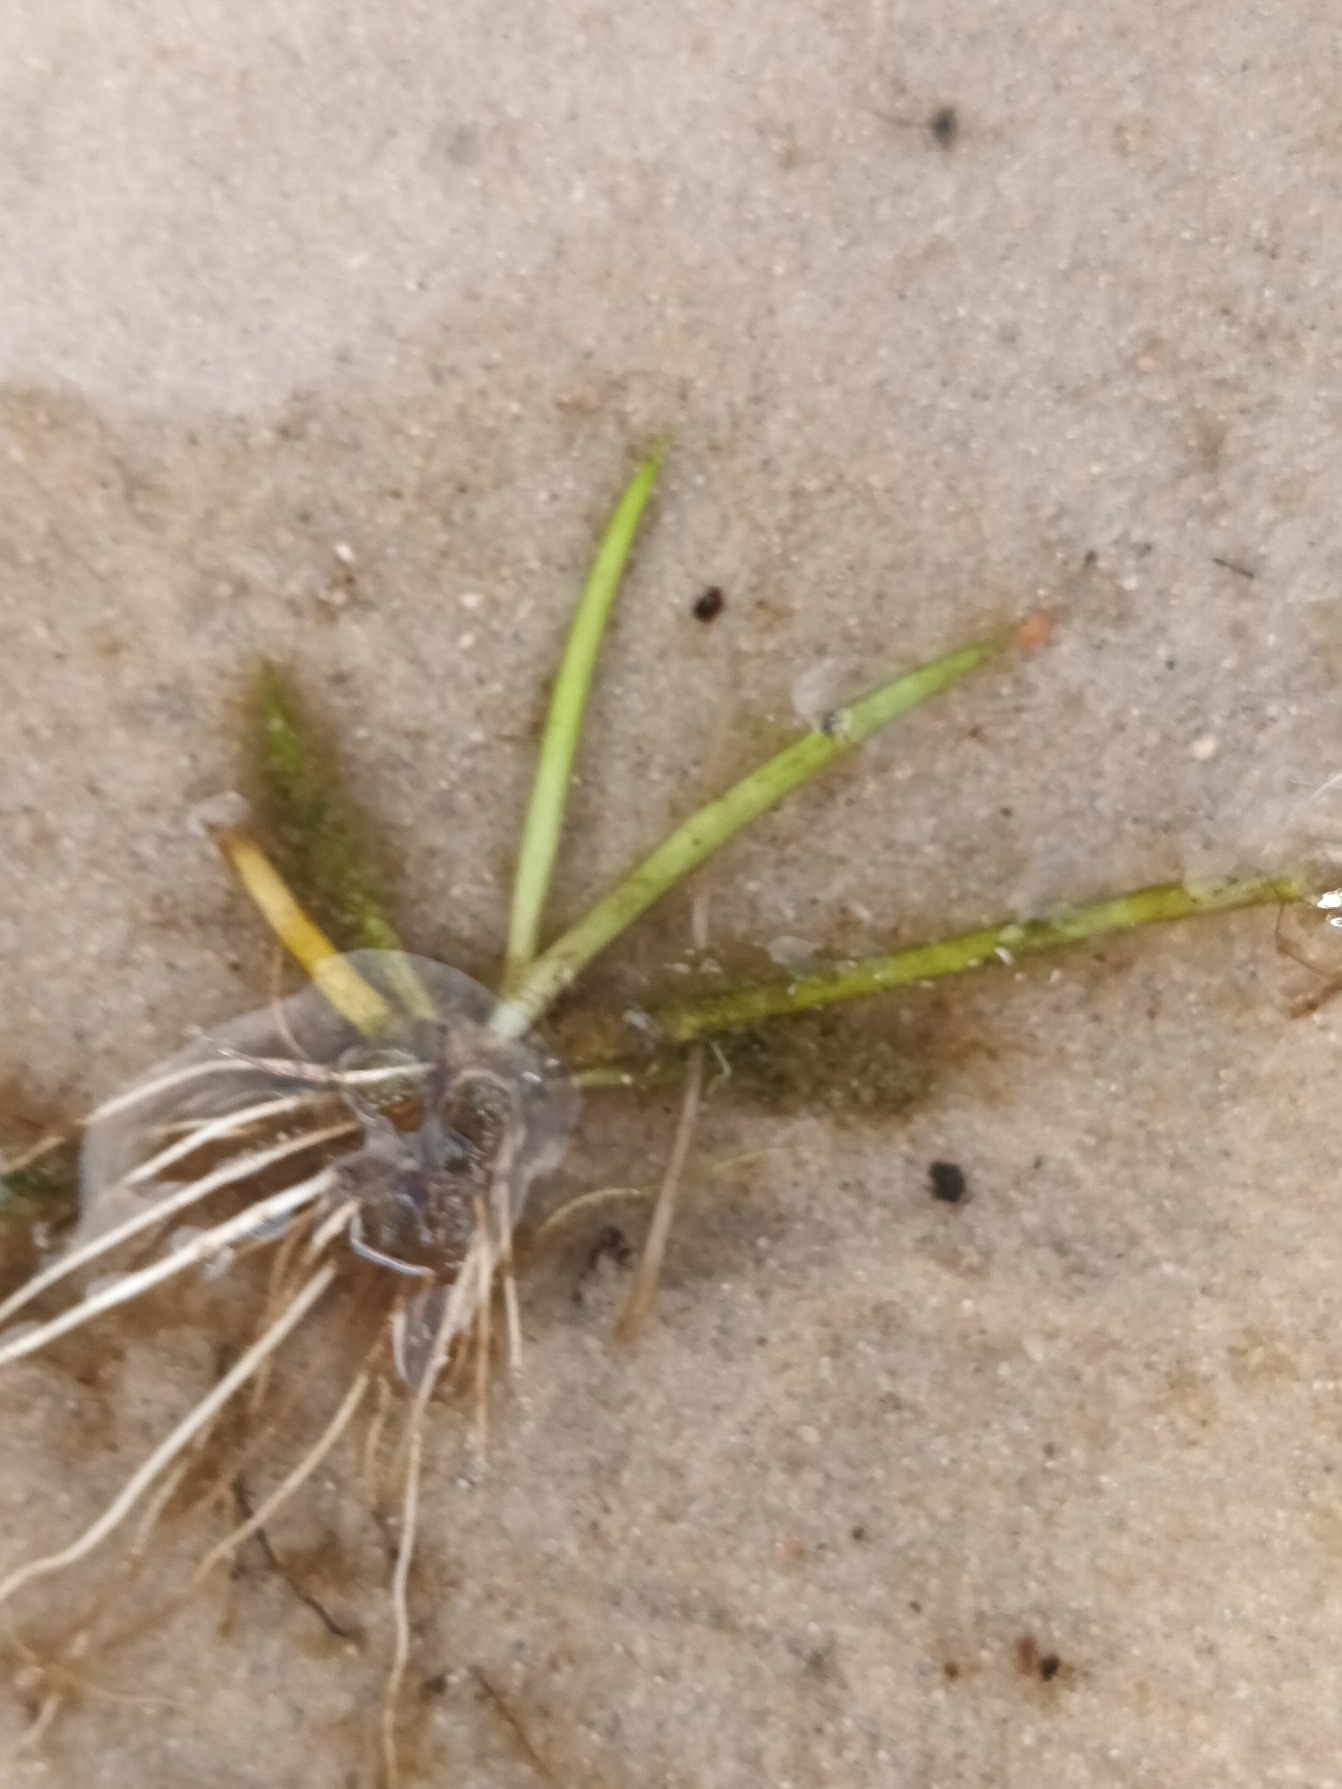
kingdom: Plantae
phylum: Tracheophyta
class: Magnoliopsida
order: Lamiales
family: Plantaginaceae
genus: Littorella
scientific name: Littorella uniflora
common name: Strandbo
